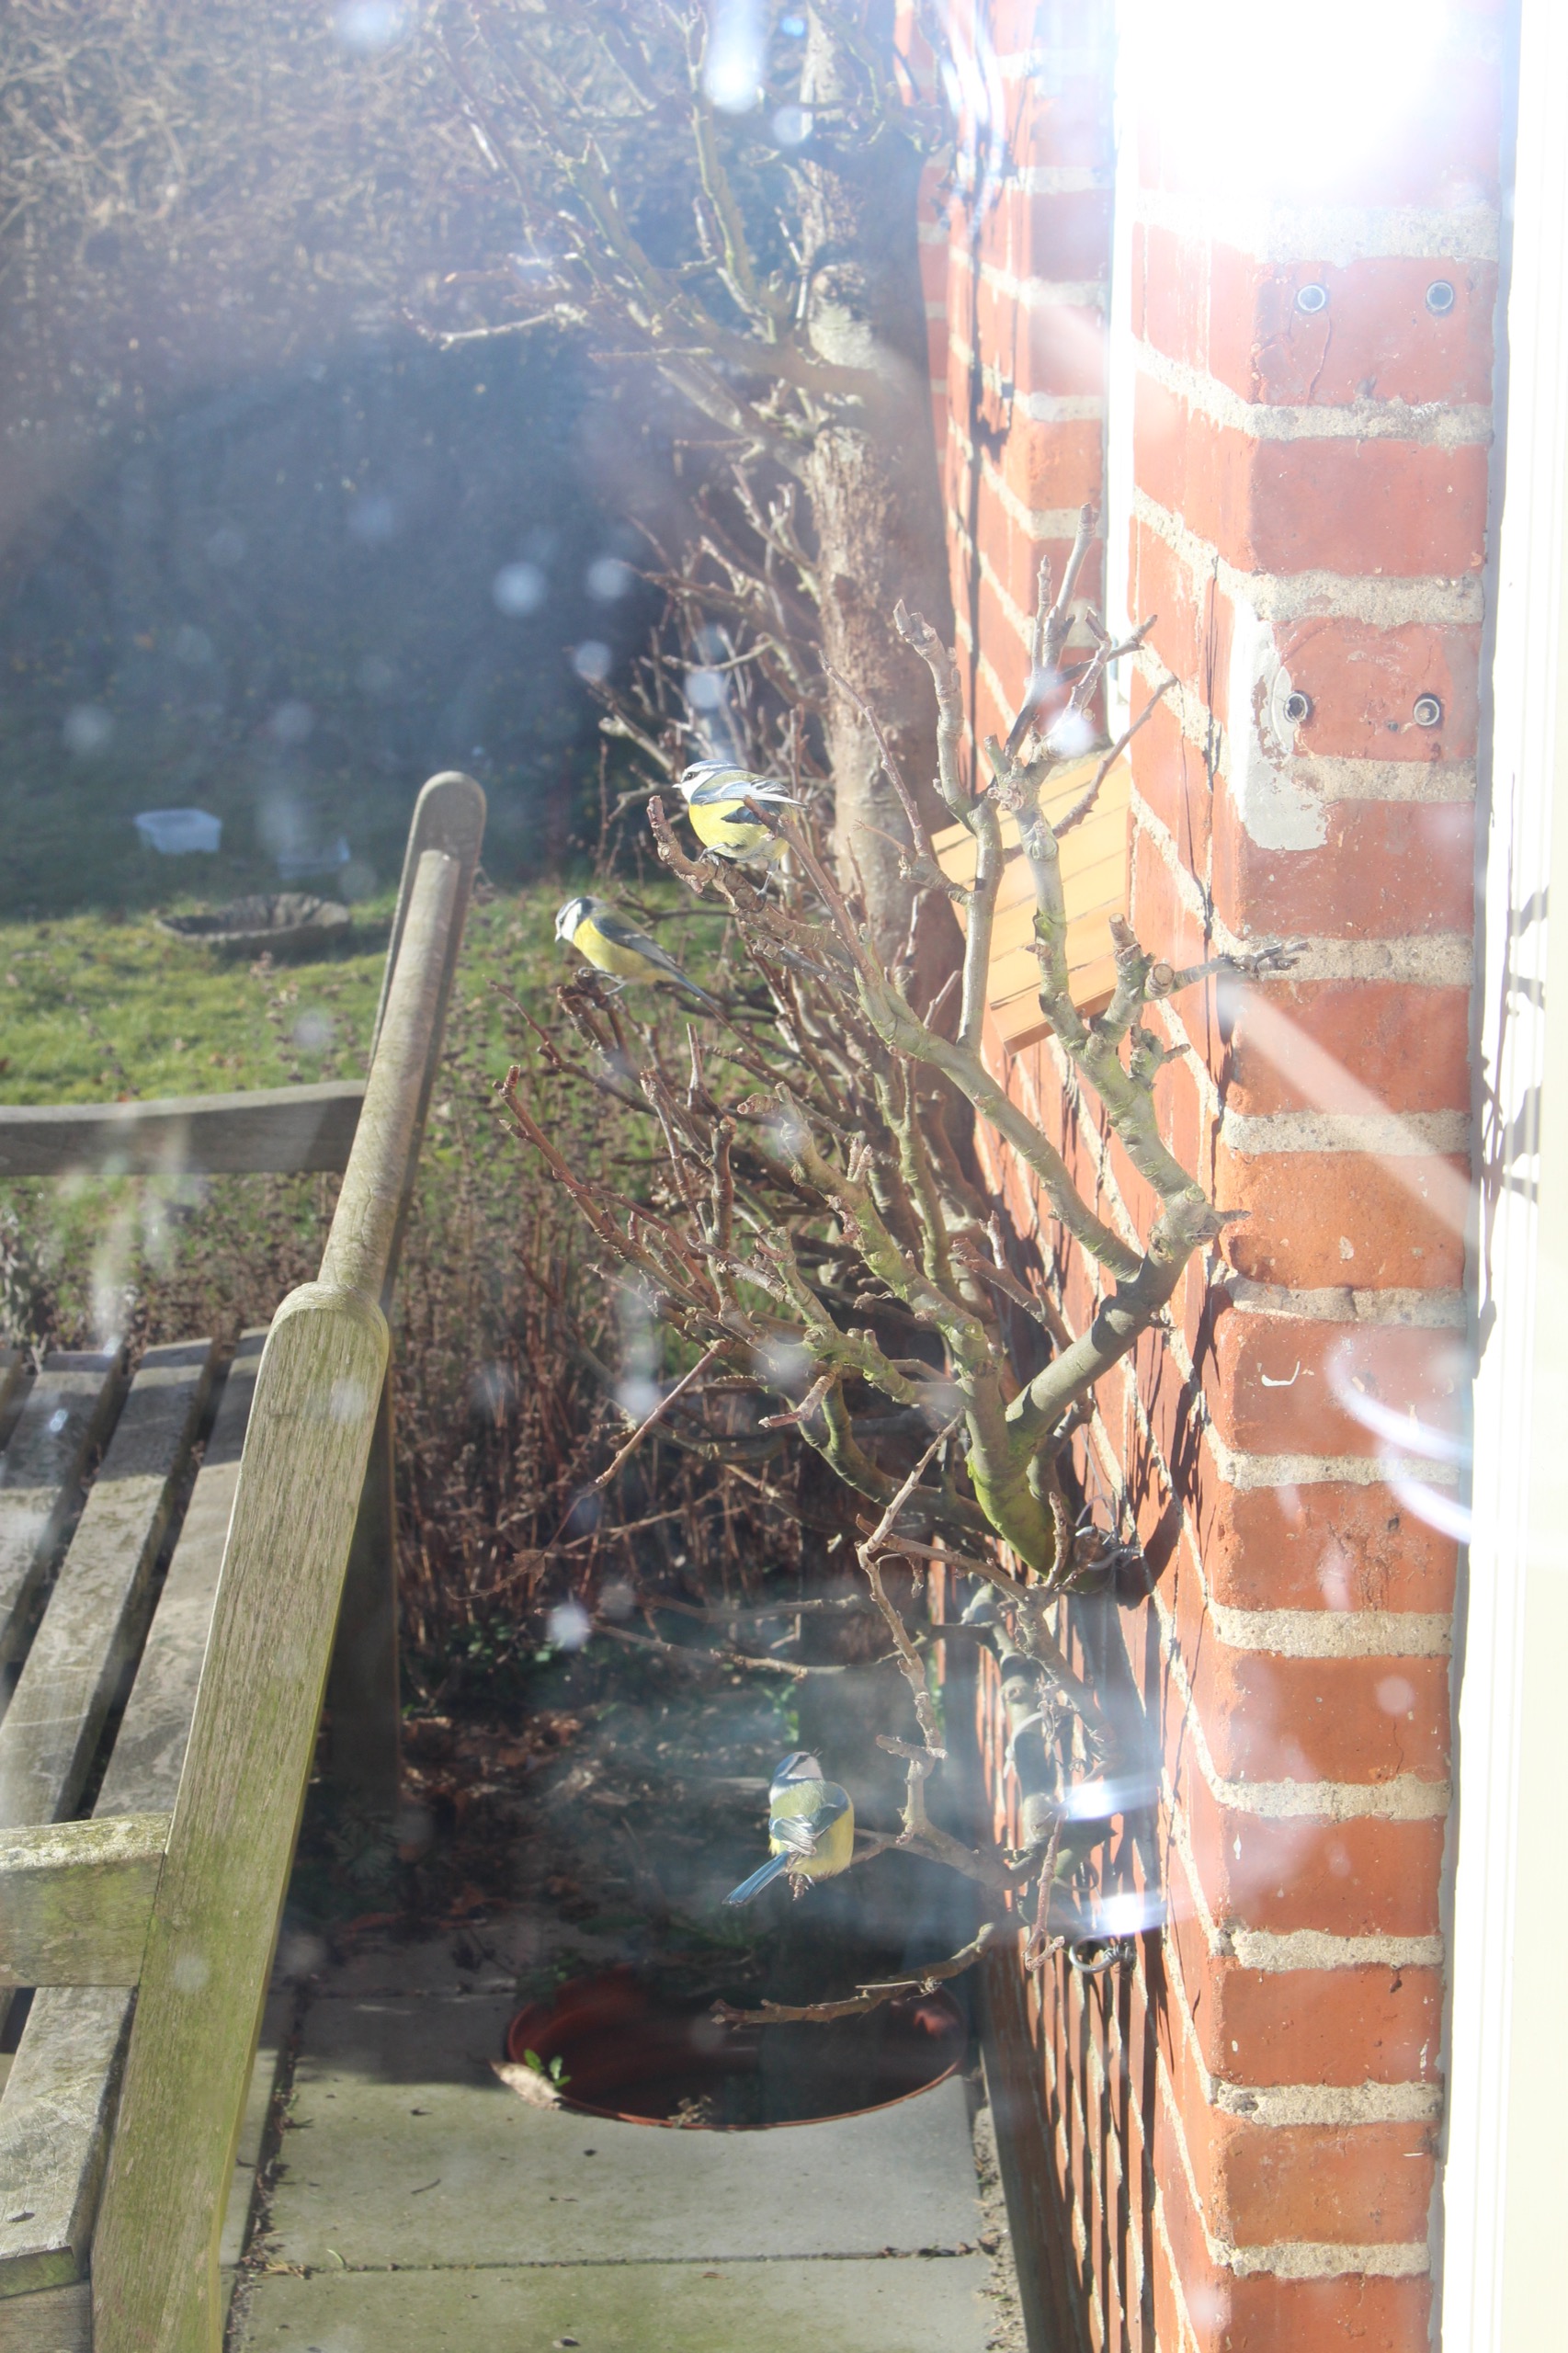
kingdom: Animalia
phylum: Chordata
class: Aves
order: Passeriformes
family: Paridae
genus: Cyanistes
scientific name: Cyanistes caeruleus
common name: Blåmejse
